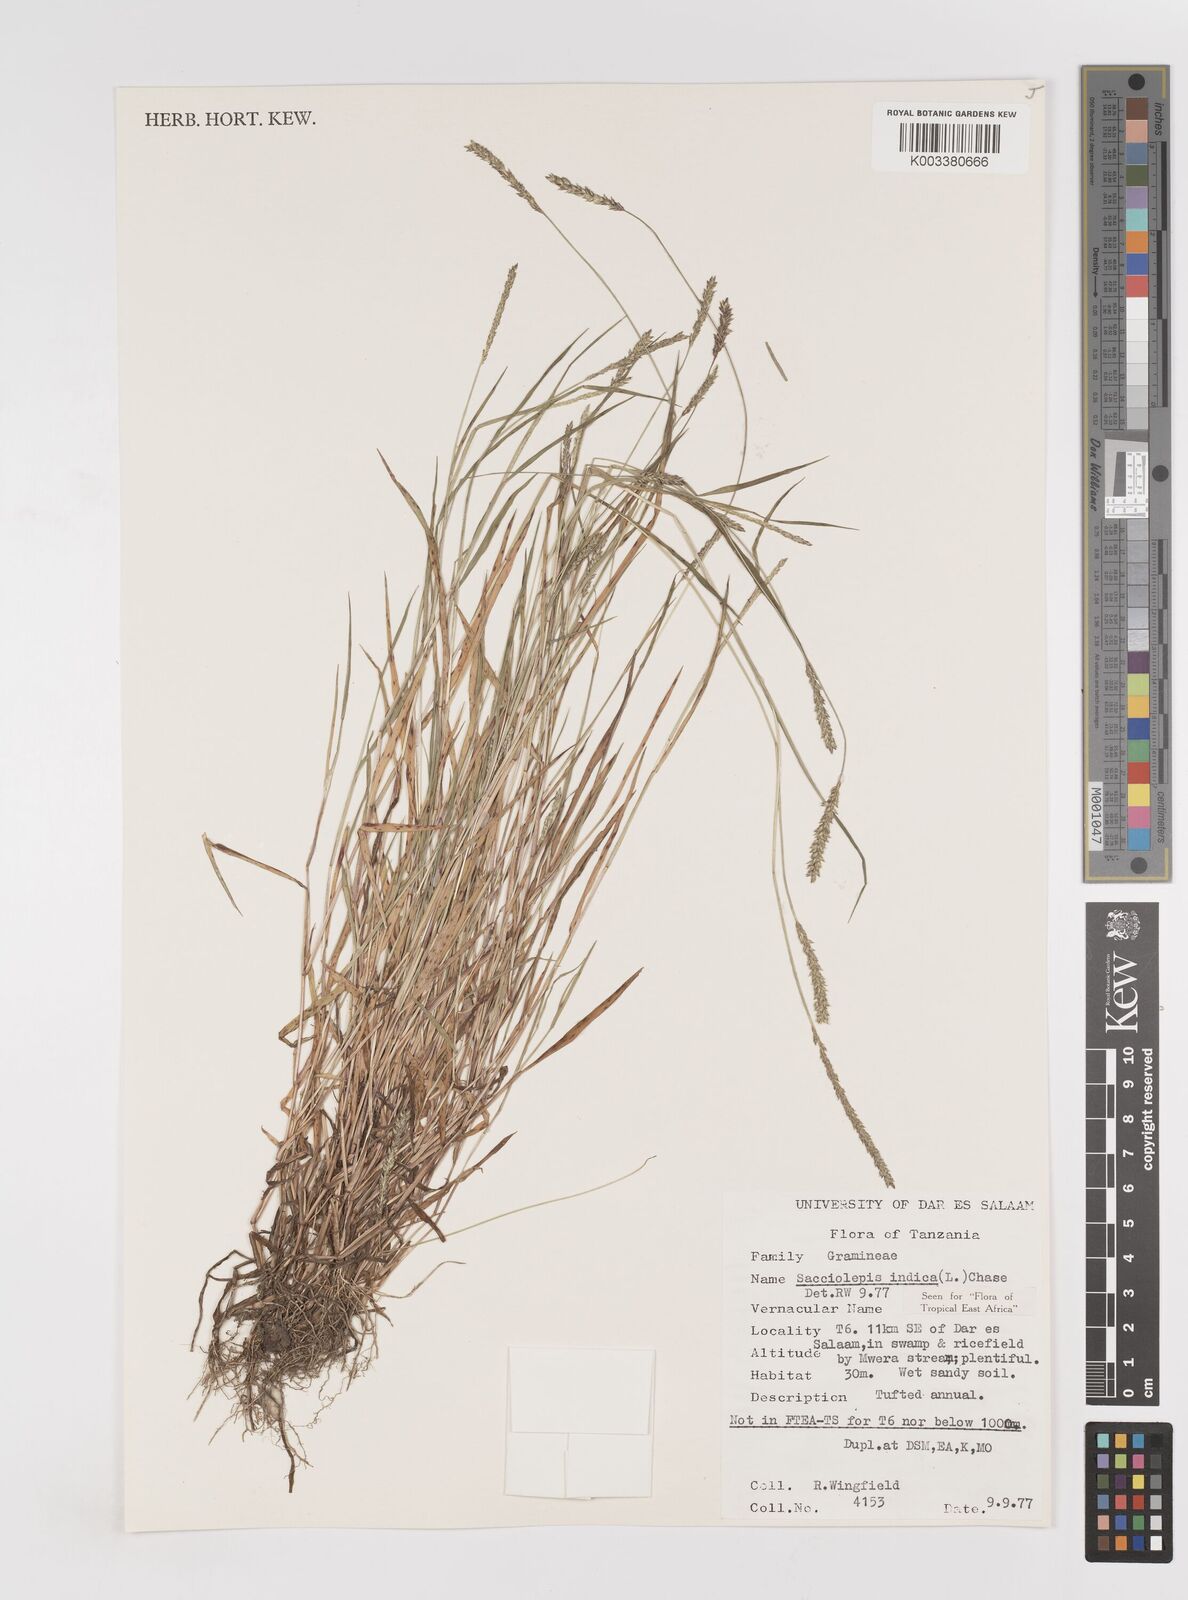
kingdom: Plantae
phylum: Tracheophyta
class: Liliopsida
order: Poales
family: Poaceae
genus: Sacciolepis
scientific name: Sacciolepis indica
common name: Glenwoodgrass
